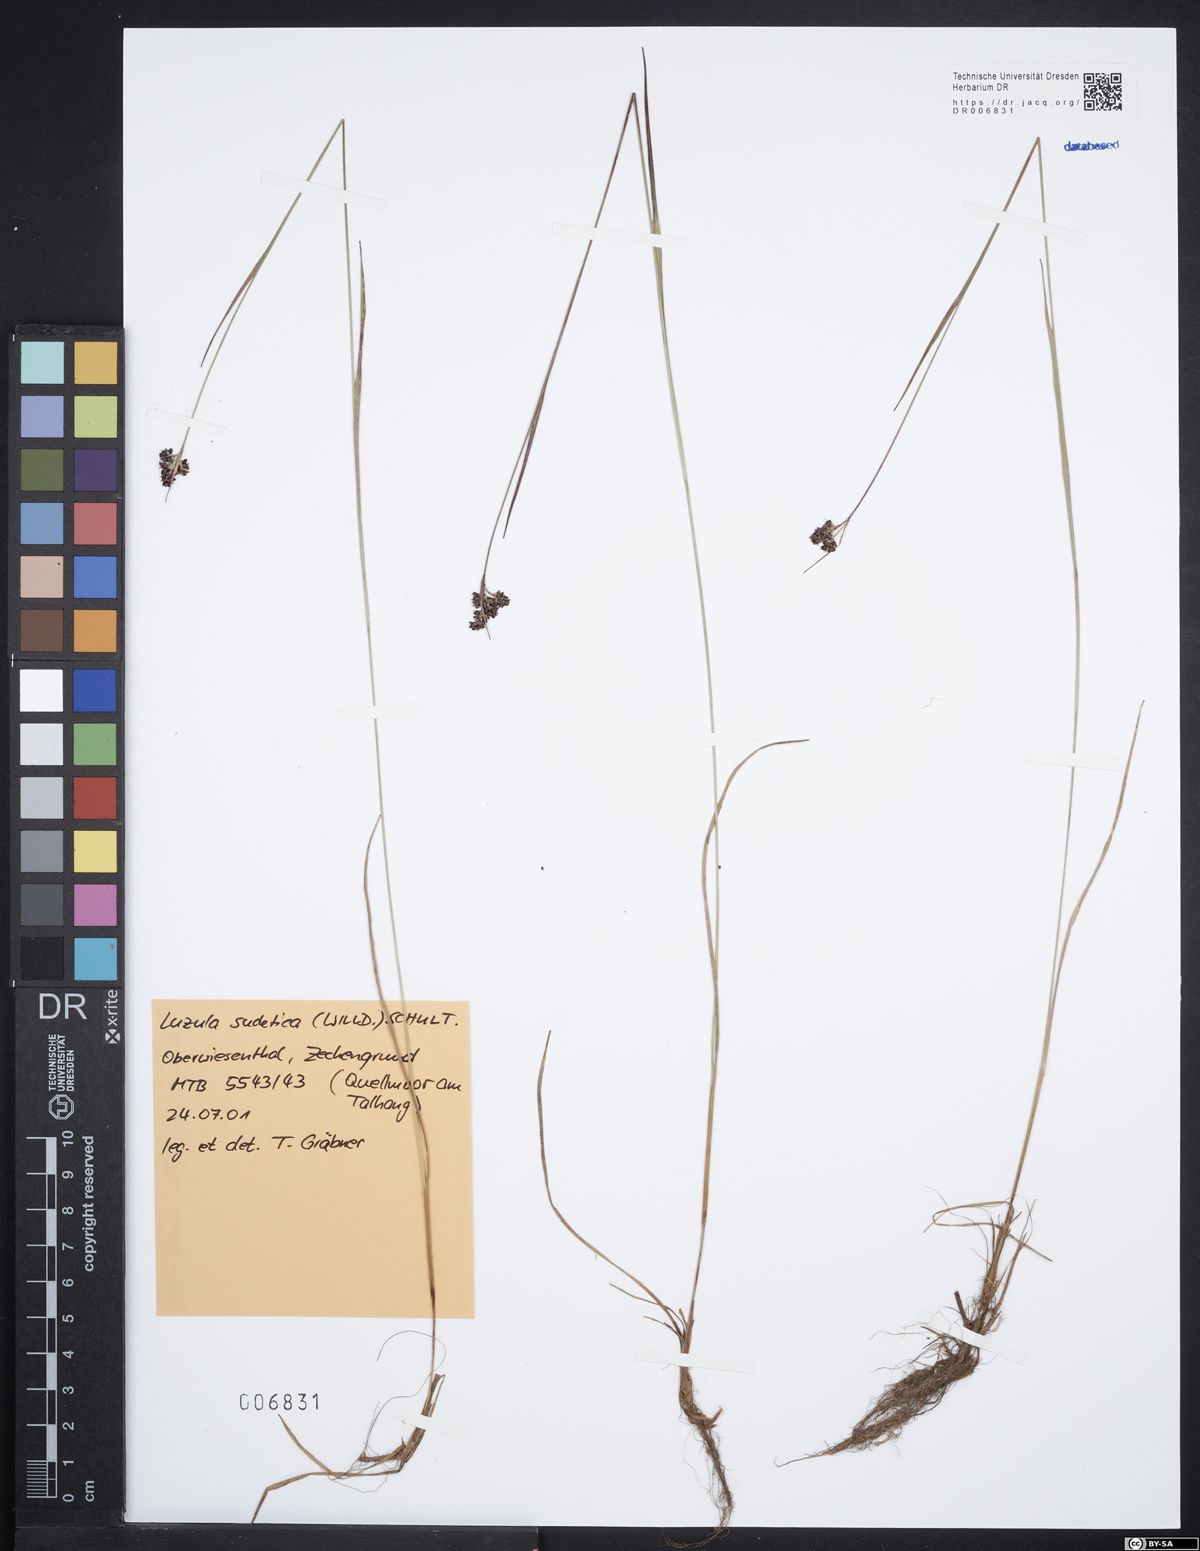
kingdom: Plantae
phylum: Tracheophyta
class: Liliopsida
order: Poales
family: Juncaceae
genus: Luzula
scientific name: Luzula sudetica
